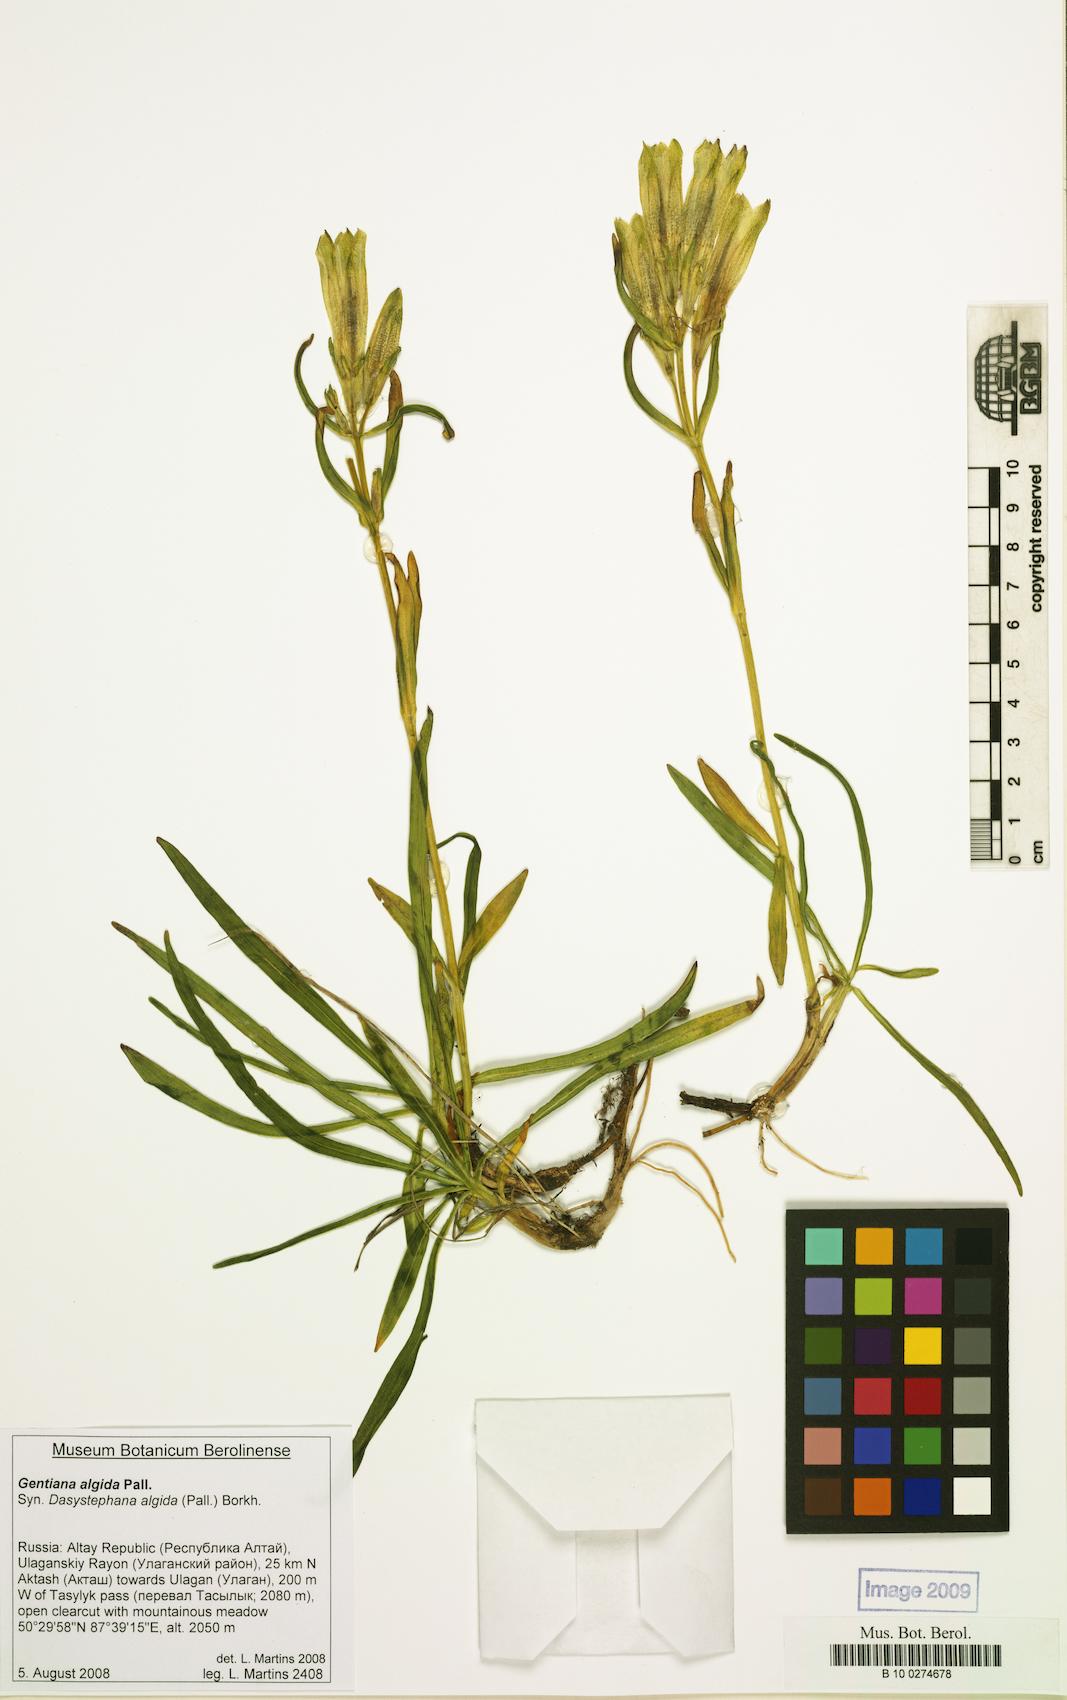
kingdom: Plantae
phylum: Tracheophyta
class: Magnoliopsida
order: Gentianales
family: Gentianaceae
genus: Gentiana
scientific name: Gentiana algida
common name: Arctic gentian
